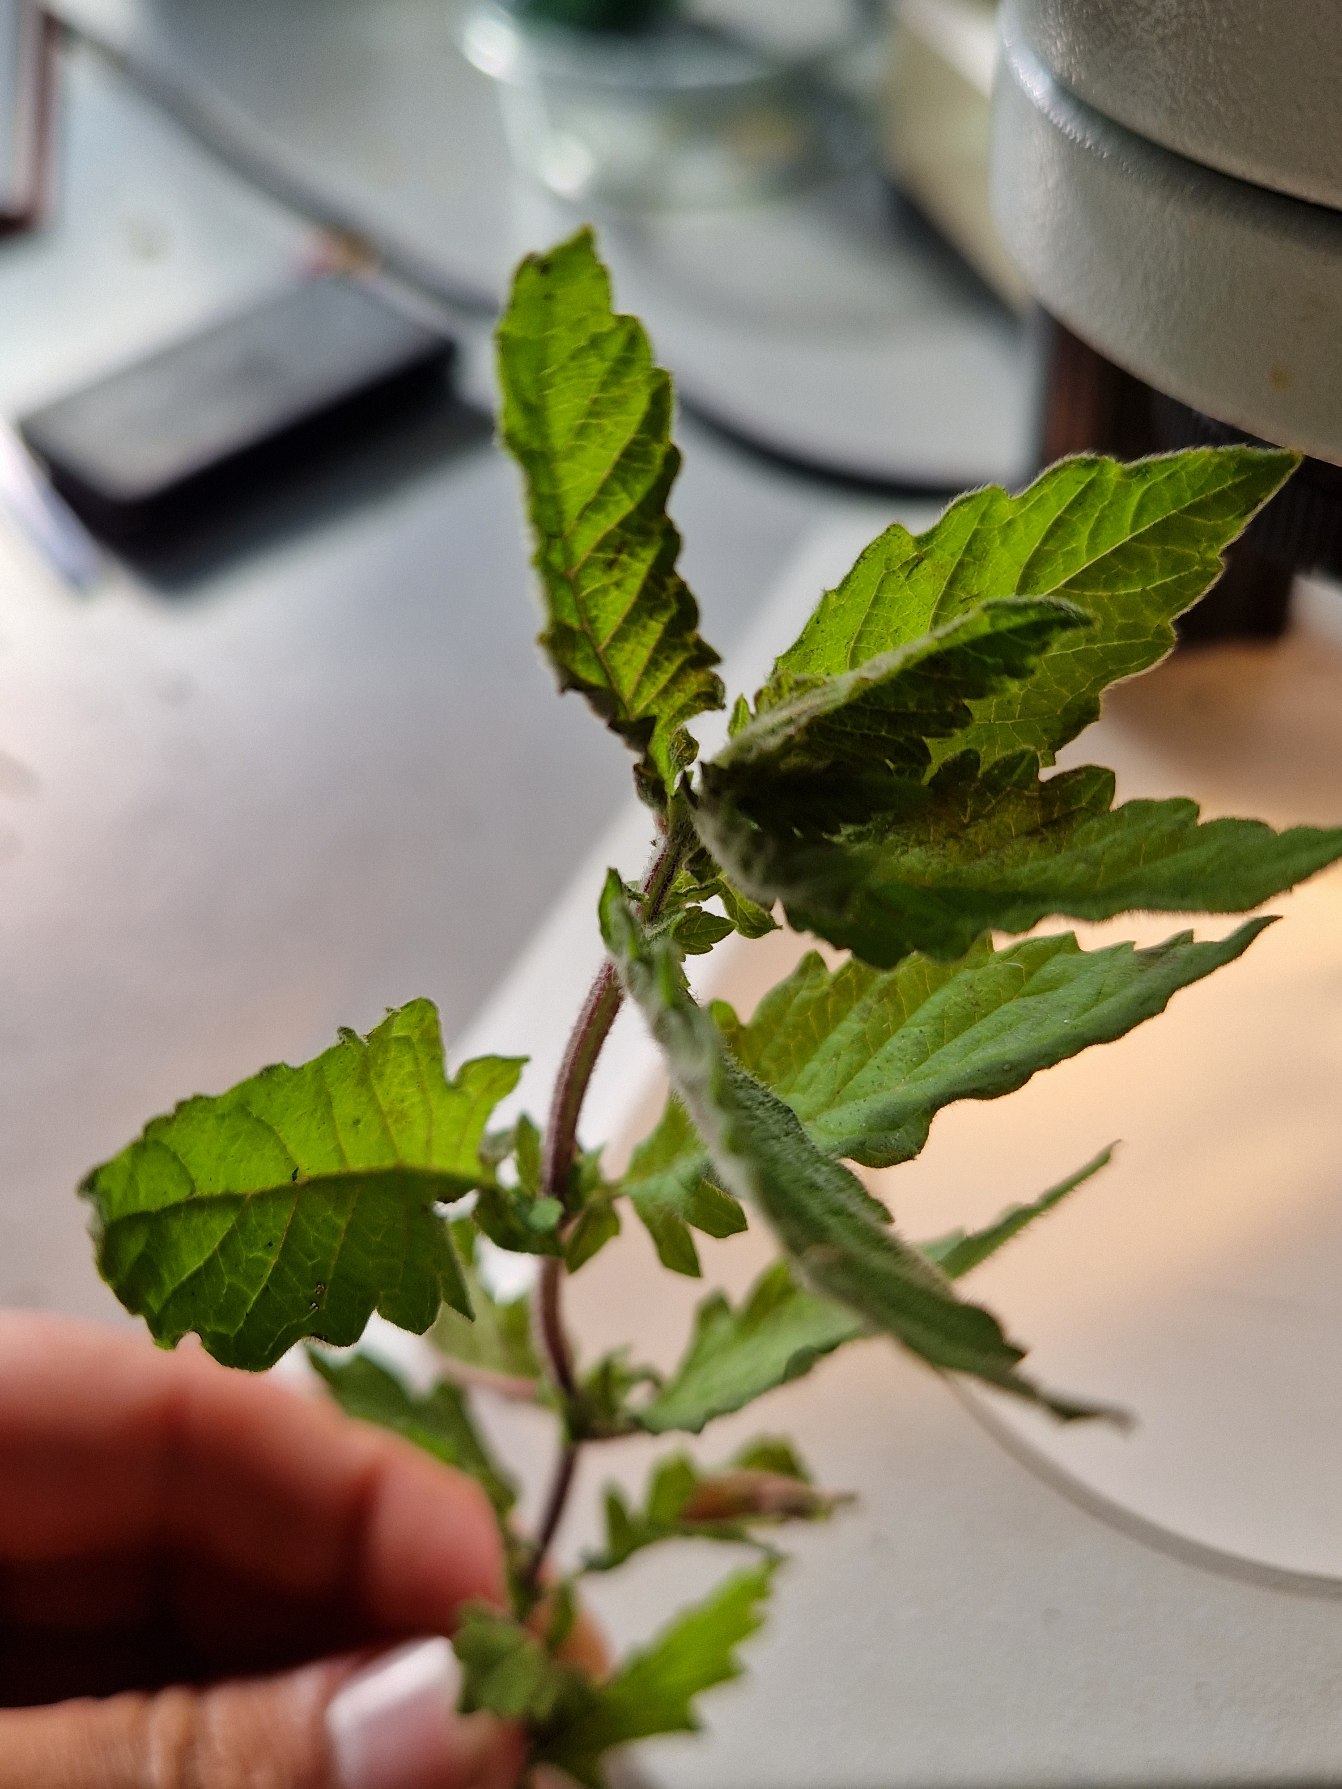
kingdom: Plantae
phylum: Tracheophyta
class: Magnoliopsida
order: Lamiales
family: Lamiaceae
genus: Lycopus
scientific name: Lycopus europaeus
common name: Sværtevæld
